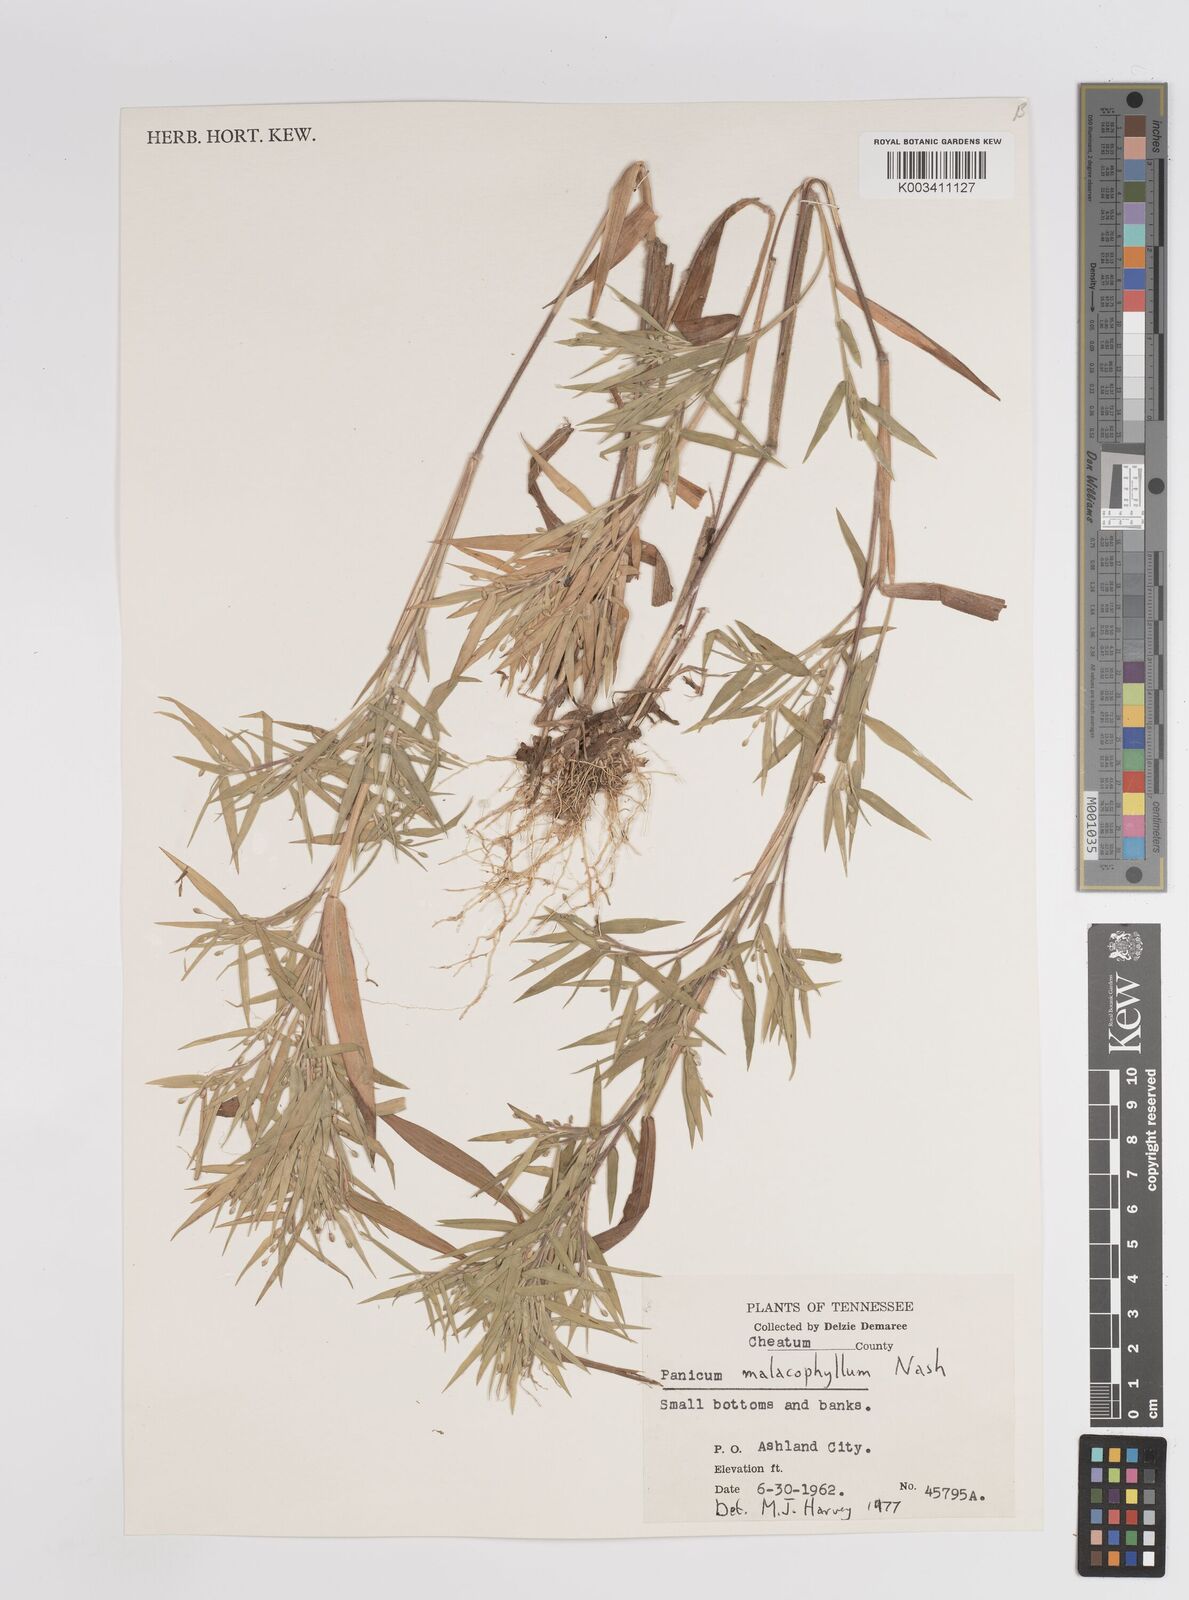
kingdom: Plantae
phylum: Tracheophyta
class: Liliopsida
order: Poales
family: Poaceae
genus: Dichanthelium
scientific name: Dichanthelium malacophyllum
